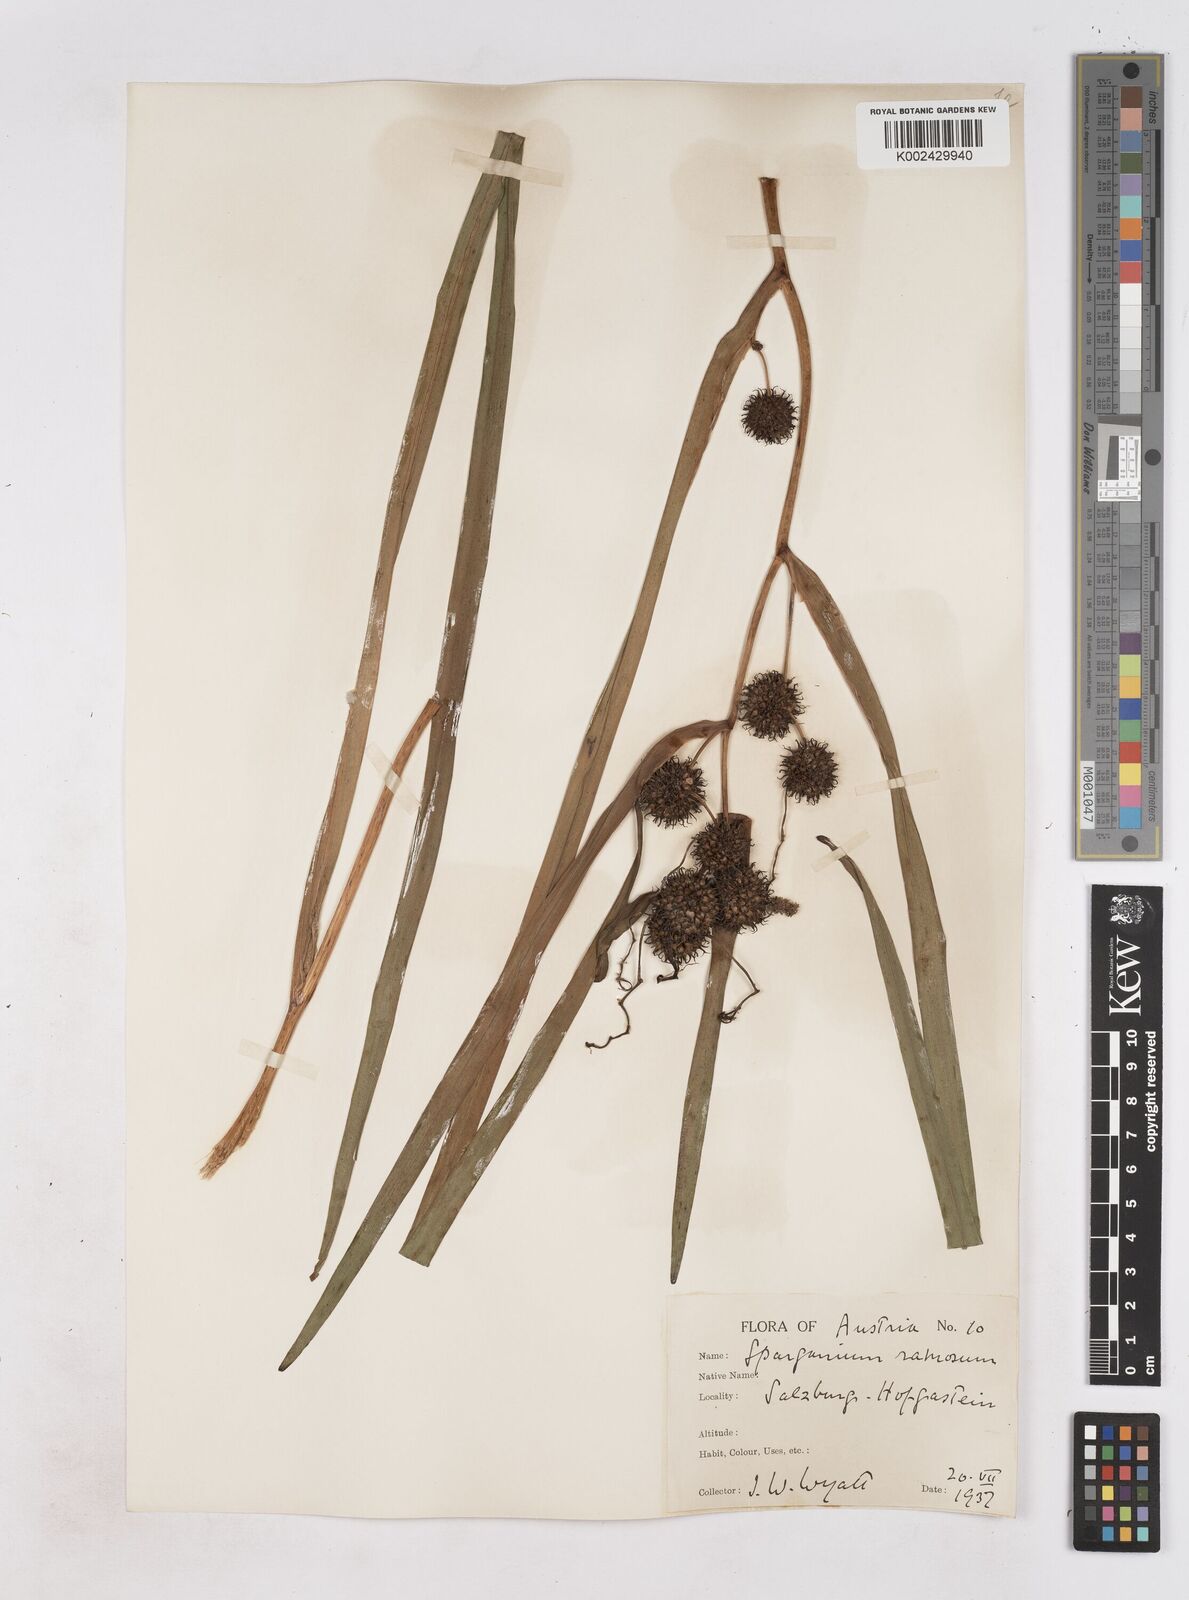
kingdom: Plantae
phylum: Tracheophyta
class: Liliopsida
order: Poales
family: Typhaceae
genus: Sparganium
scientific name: Sparganium erectum
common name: Branched bur-reed
